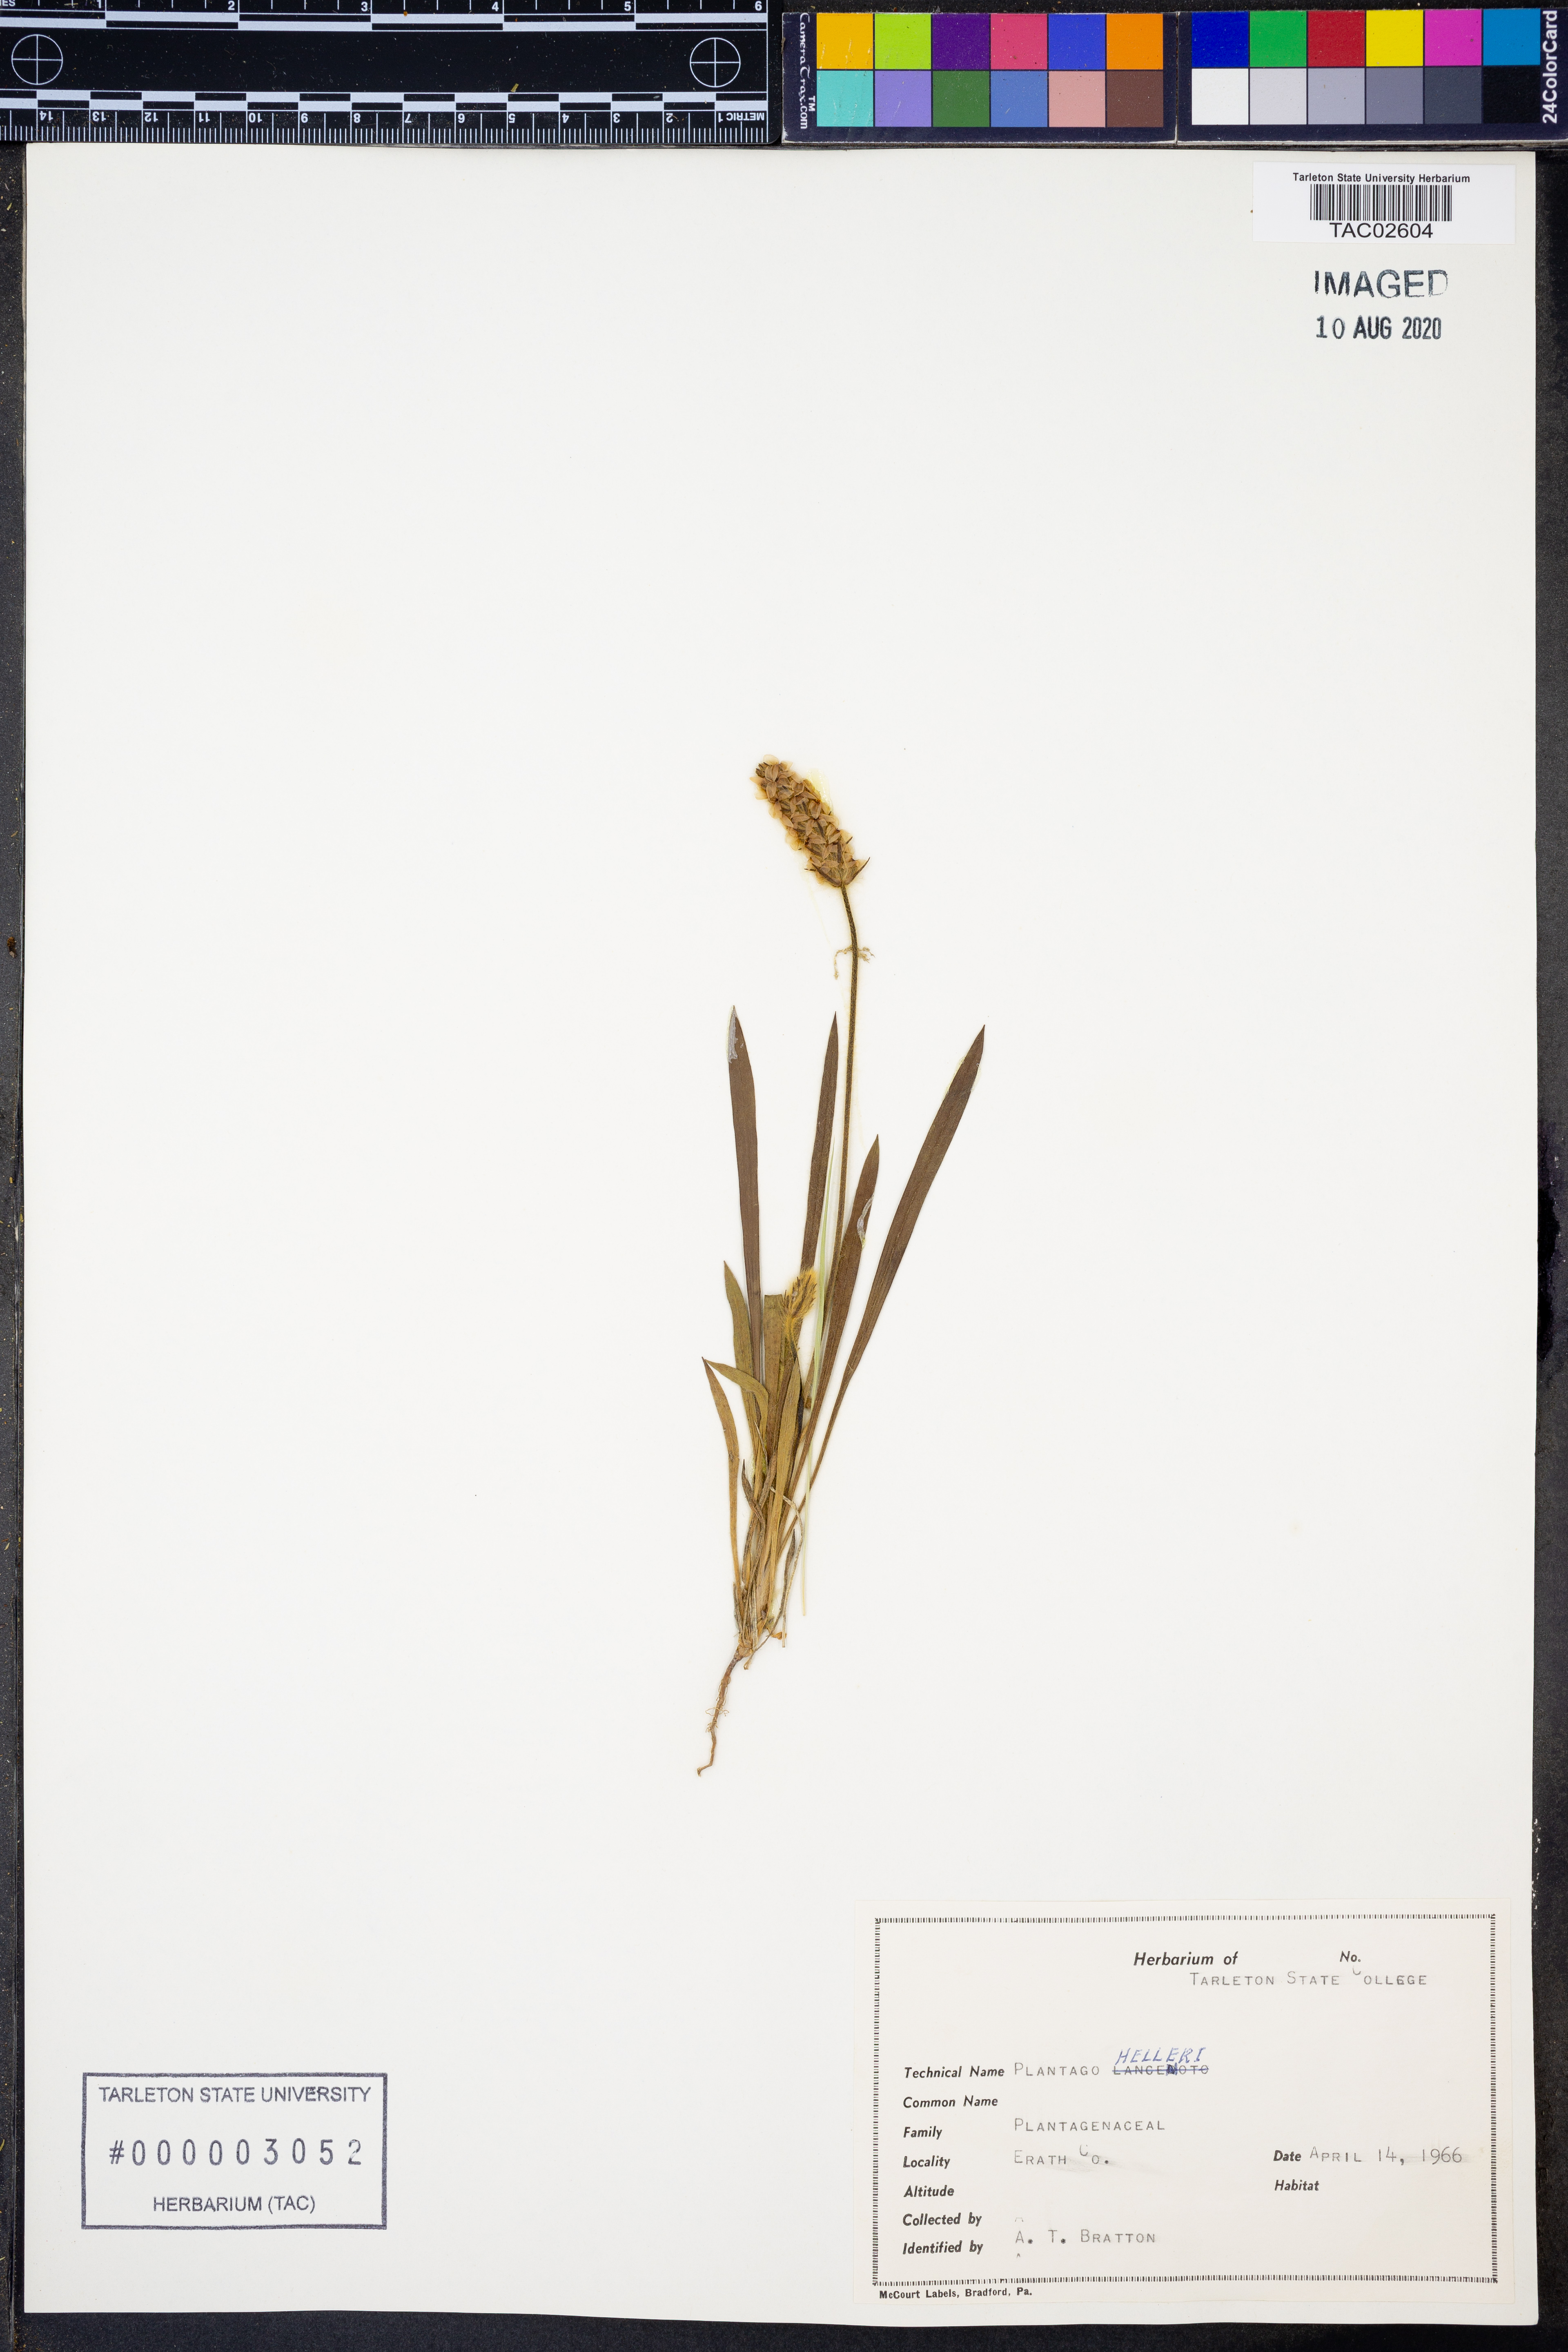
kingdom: Plantae
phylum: Tracheophyta
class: Magnoliopsida
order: Lamiales
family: Plantaginaceae
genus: Plantago
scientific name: Plantago helleri
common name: Heller's plantain
